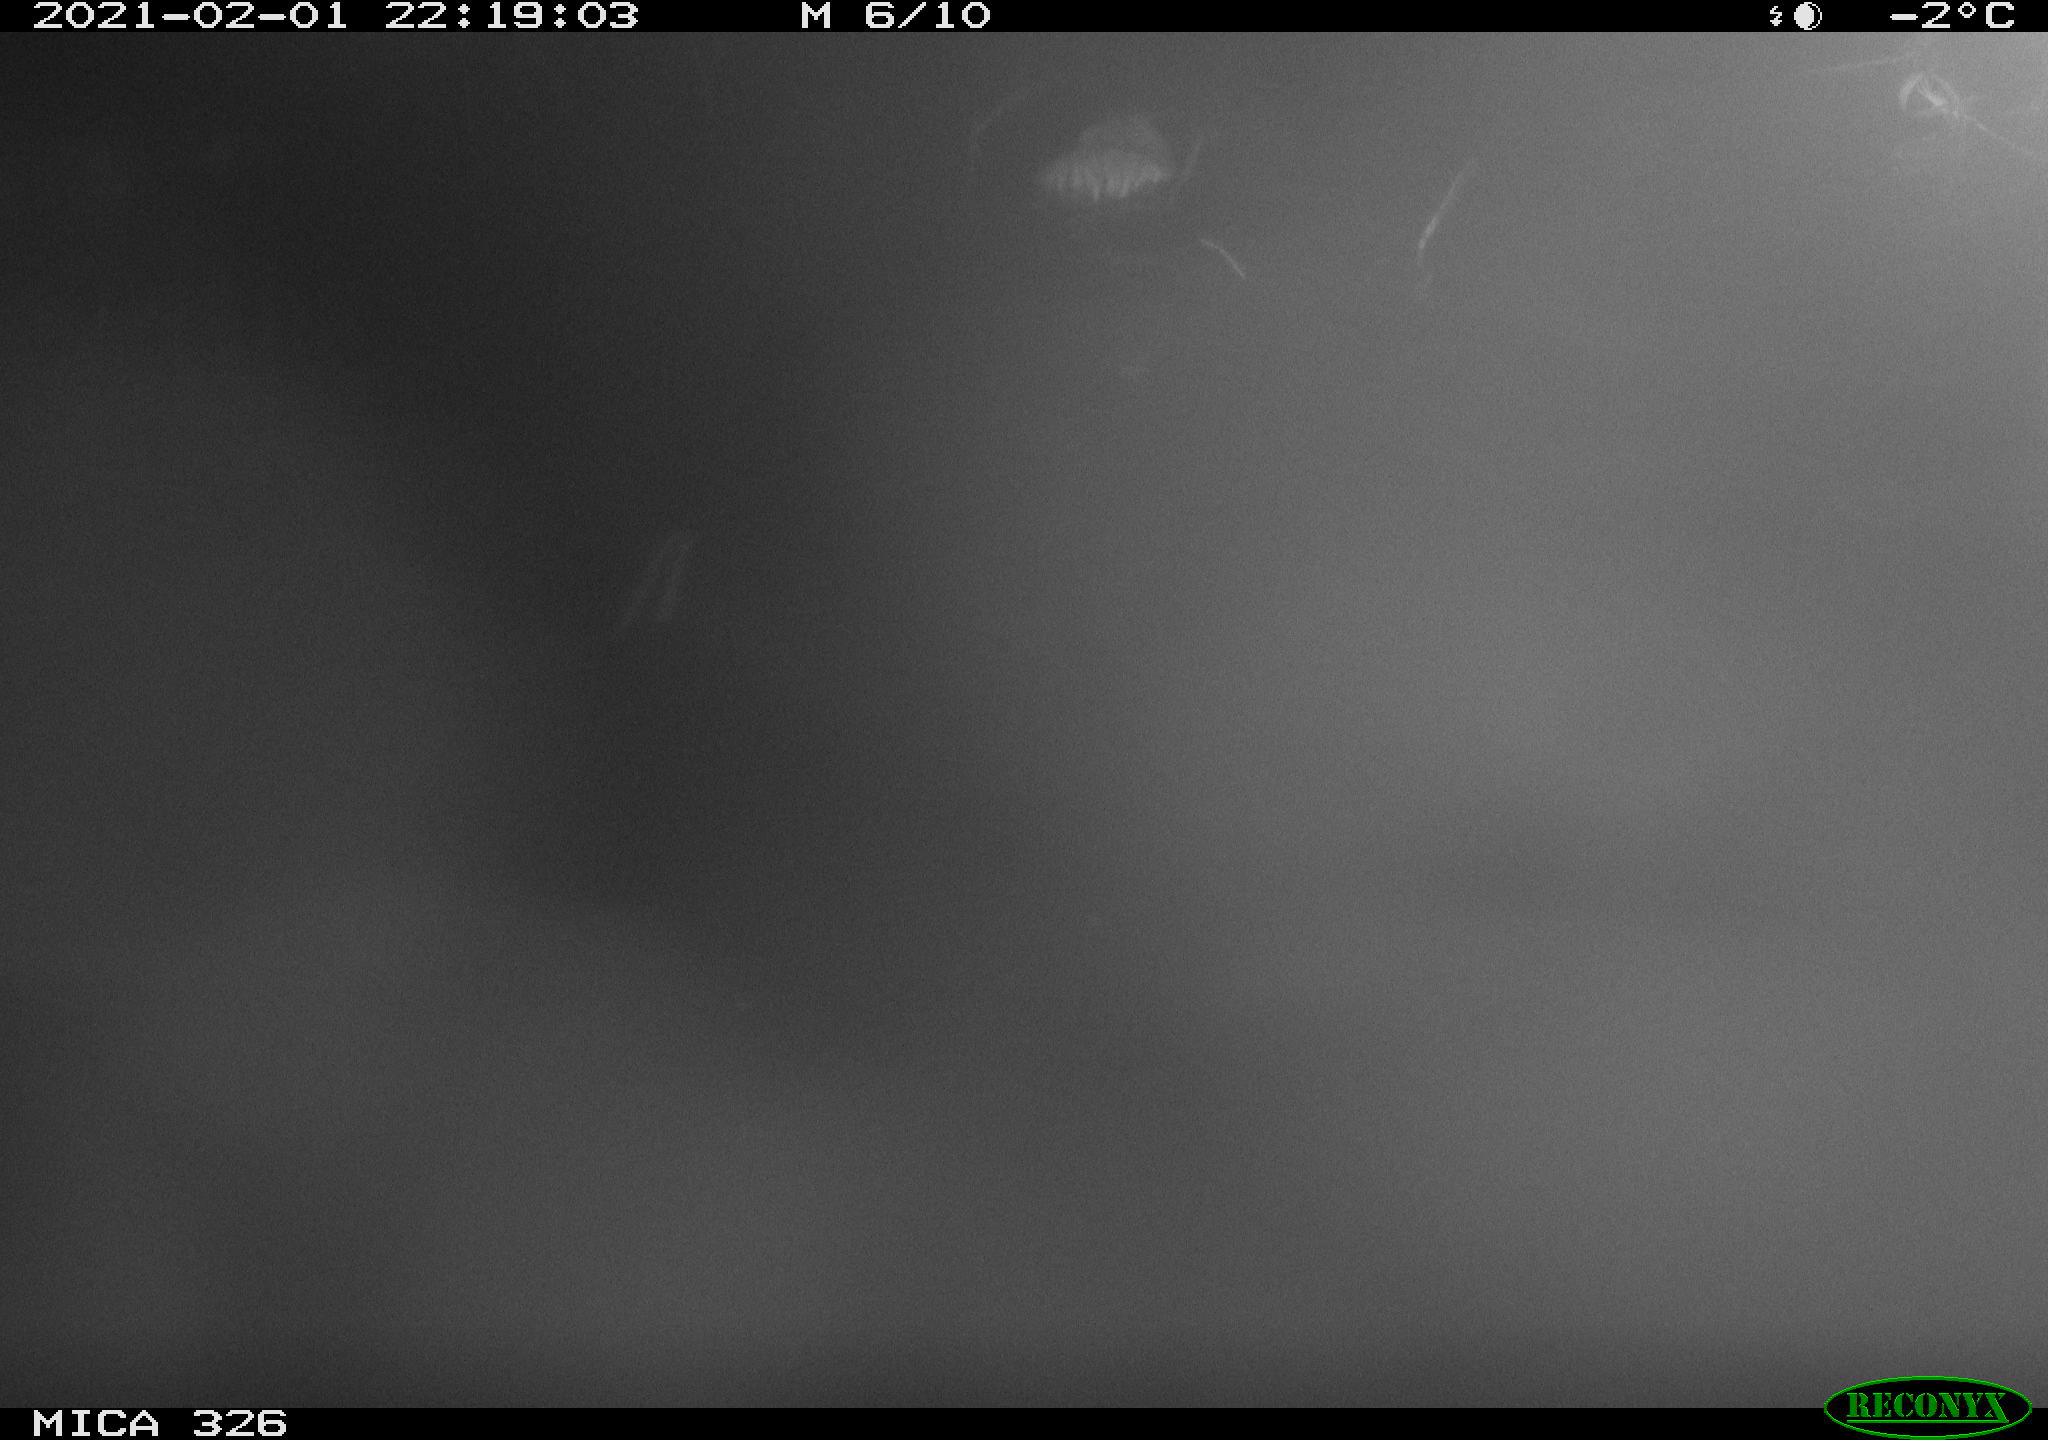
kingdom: Animalia
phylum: Chordata
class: Mammalia
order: Rodentia
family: Cricetidae
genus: Ondatra
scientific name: Ondatra zibethicus
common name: Muskrat
